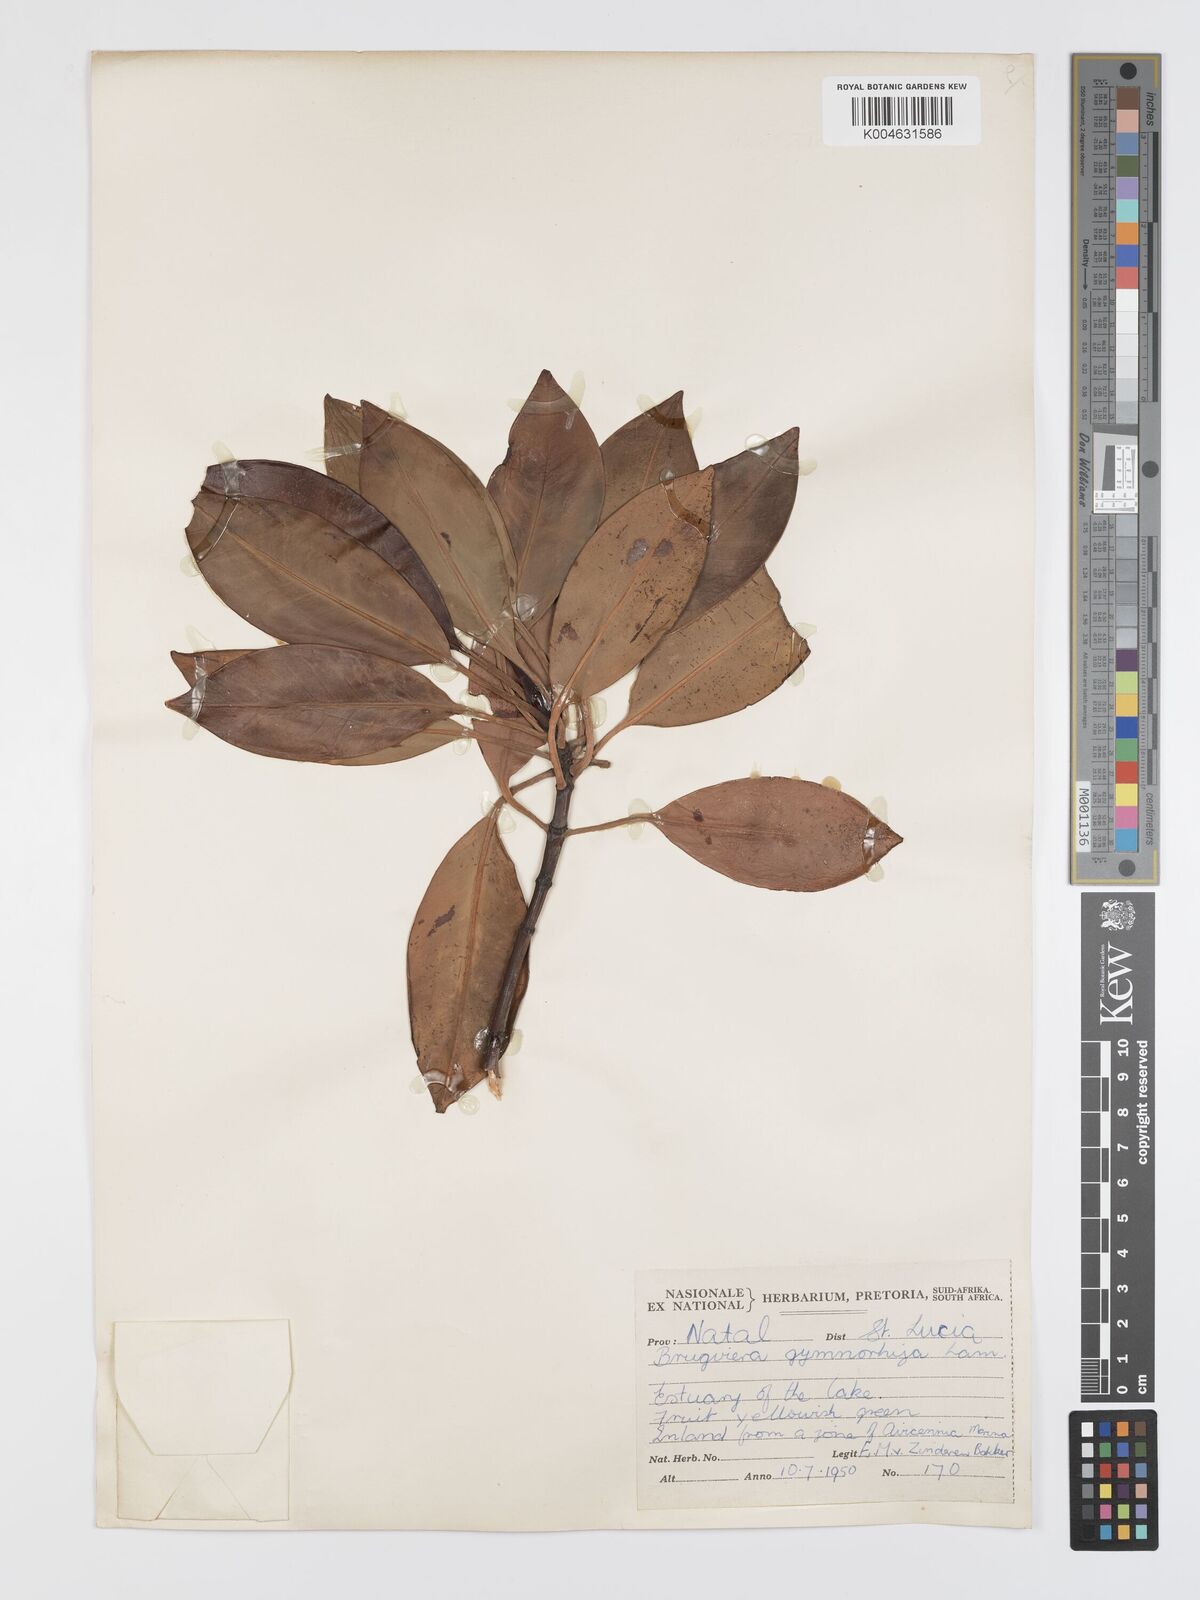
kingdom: Plantae
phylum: Tracheophyta
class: Magnoliopsida
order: Malpighiales
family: Rhizophoraceae
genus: Bruguiera
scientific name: Bruguiera
